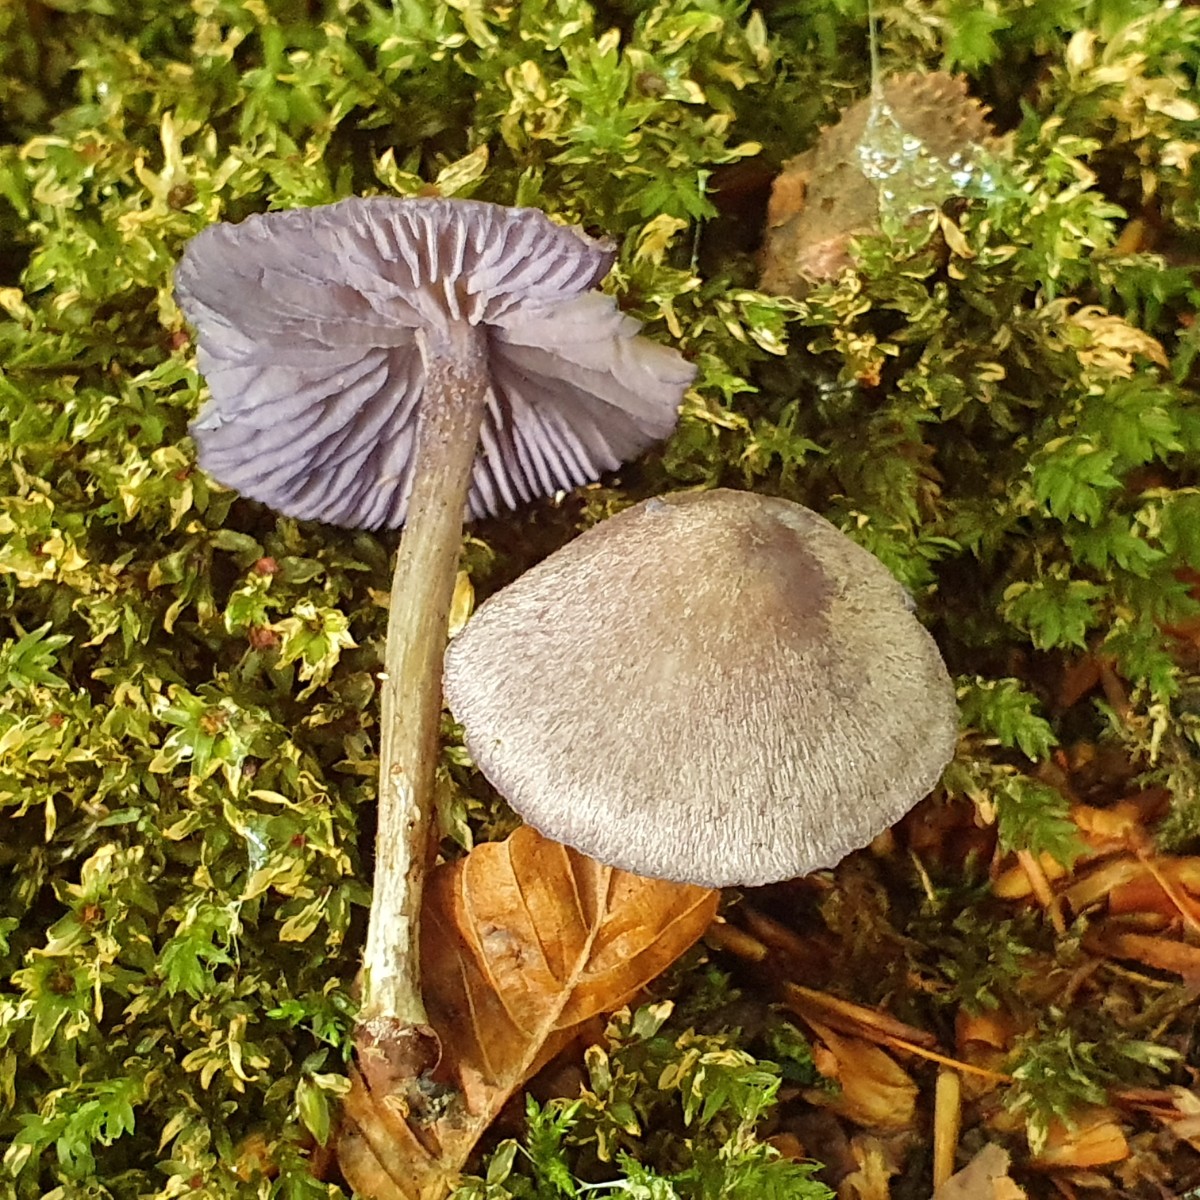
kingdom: Fungi
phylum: Basidiomycota
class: Agaricomycetes
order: Agaricales
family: Entolomataceae
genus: Entoloma
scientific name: Entoloma euchroum
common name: smuk rødblad
